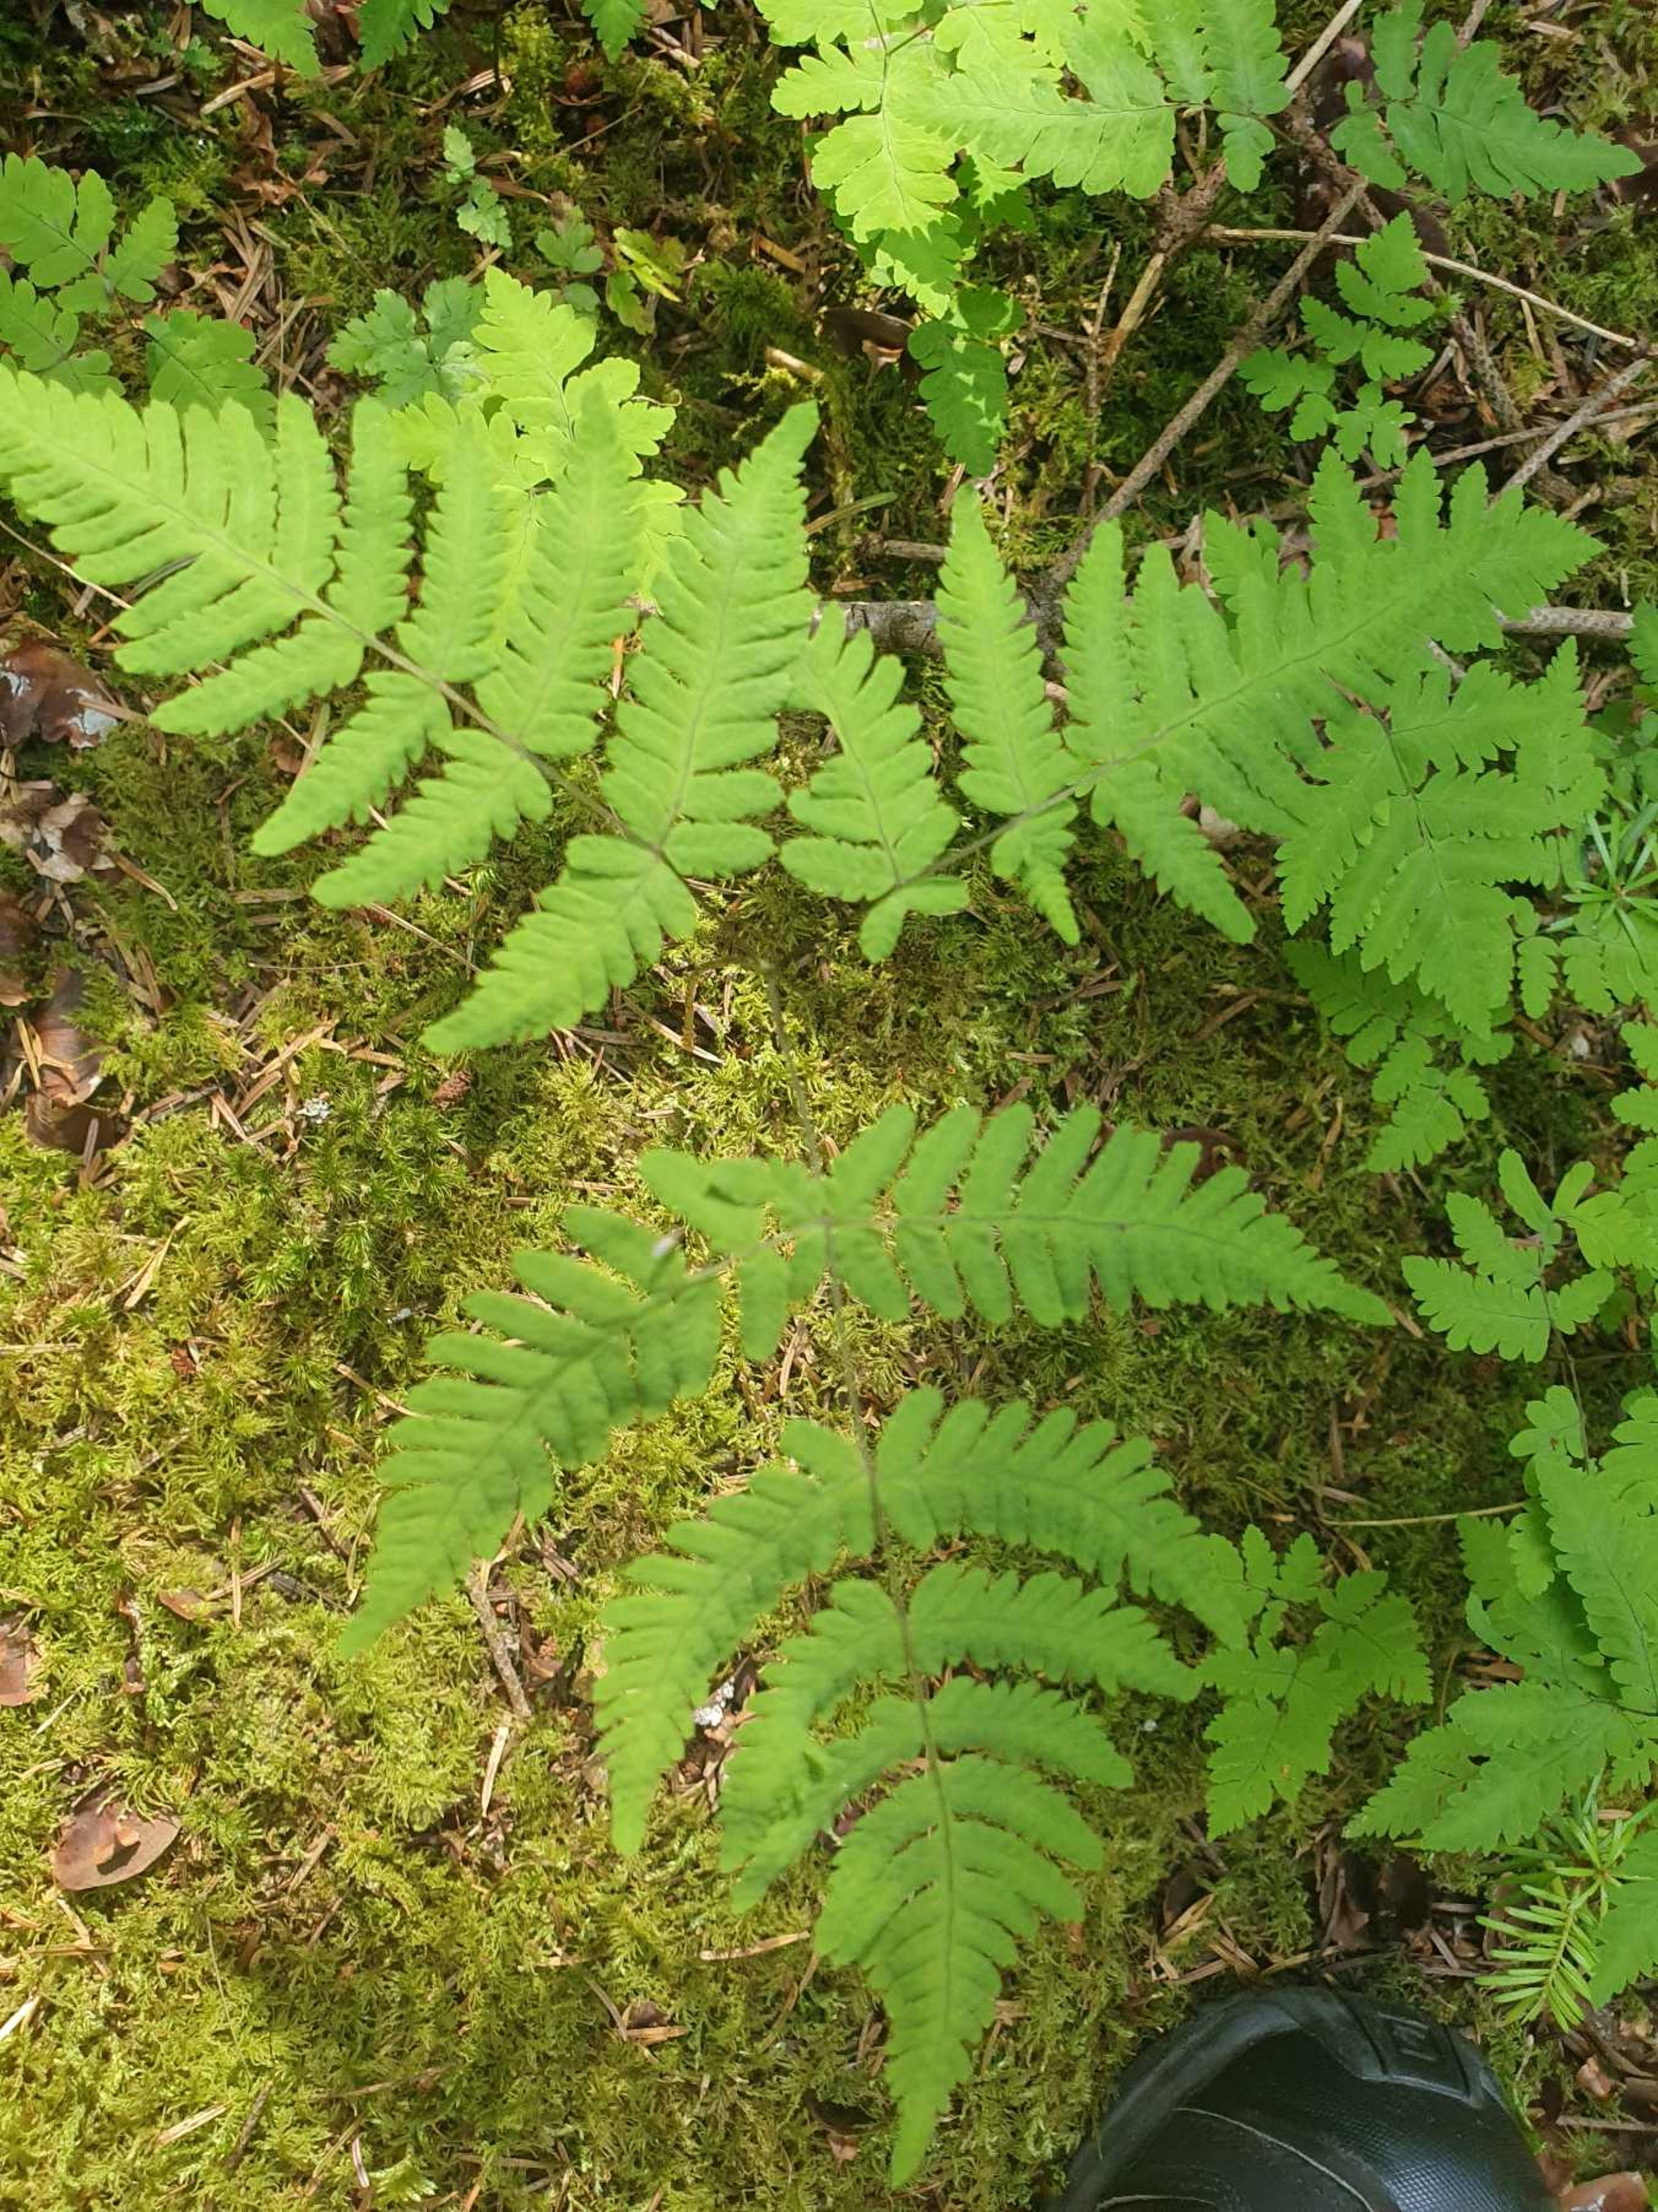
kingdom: Plantae
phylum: Tracheophyta
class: Polypodiopsida
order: Polypodiales
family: Cystopteridaceae
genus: Gymnocarpium
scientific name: Gymnocarpium dryopteris
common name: Tredelt egebregne
